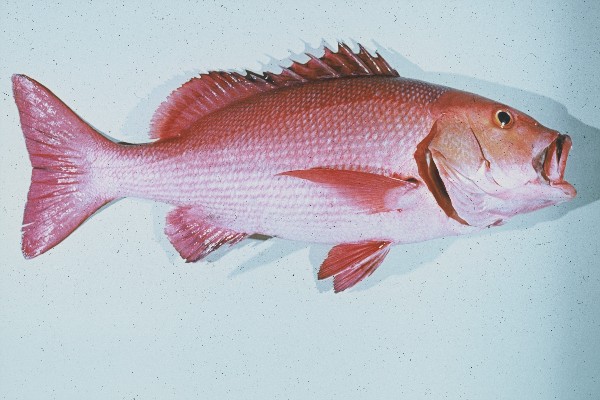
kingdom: Animalia
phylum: Chordata
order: Perciformes
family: Lutjanidae
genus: Lutjanus
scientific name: Lutjanus bohar
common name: Red bass
